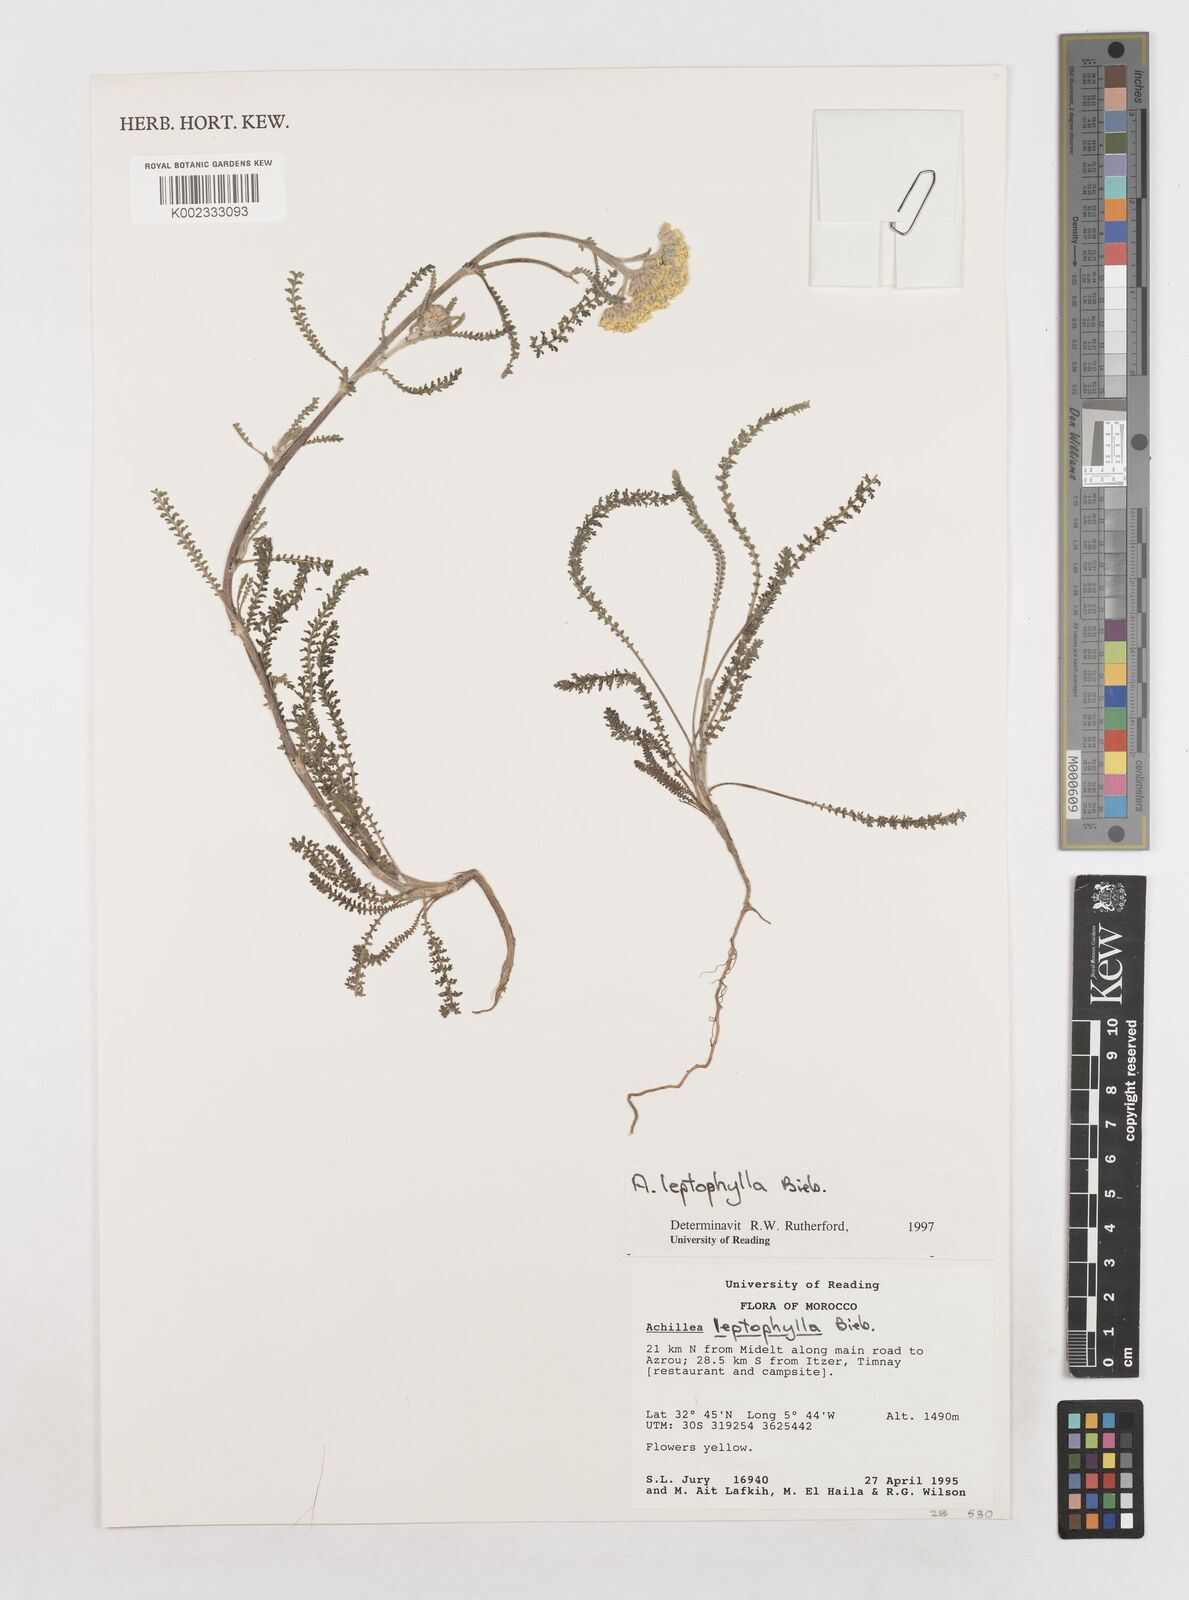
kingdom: Plantae
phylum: Tracheophyta
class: Magnoliopsida
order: Asterales
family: Asteraceae
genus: Achillea
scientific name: Achillea leptophylla
